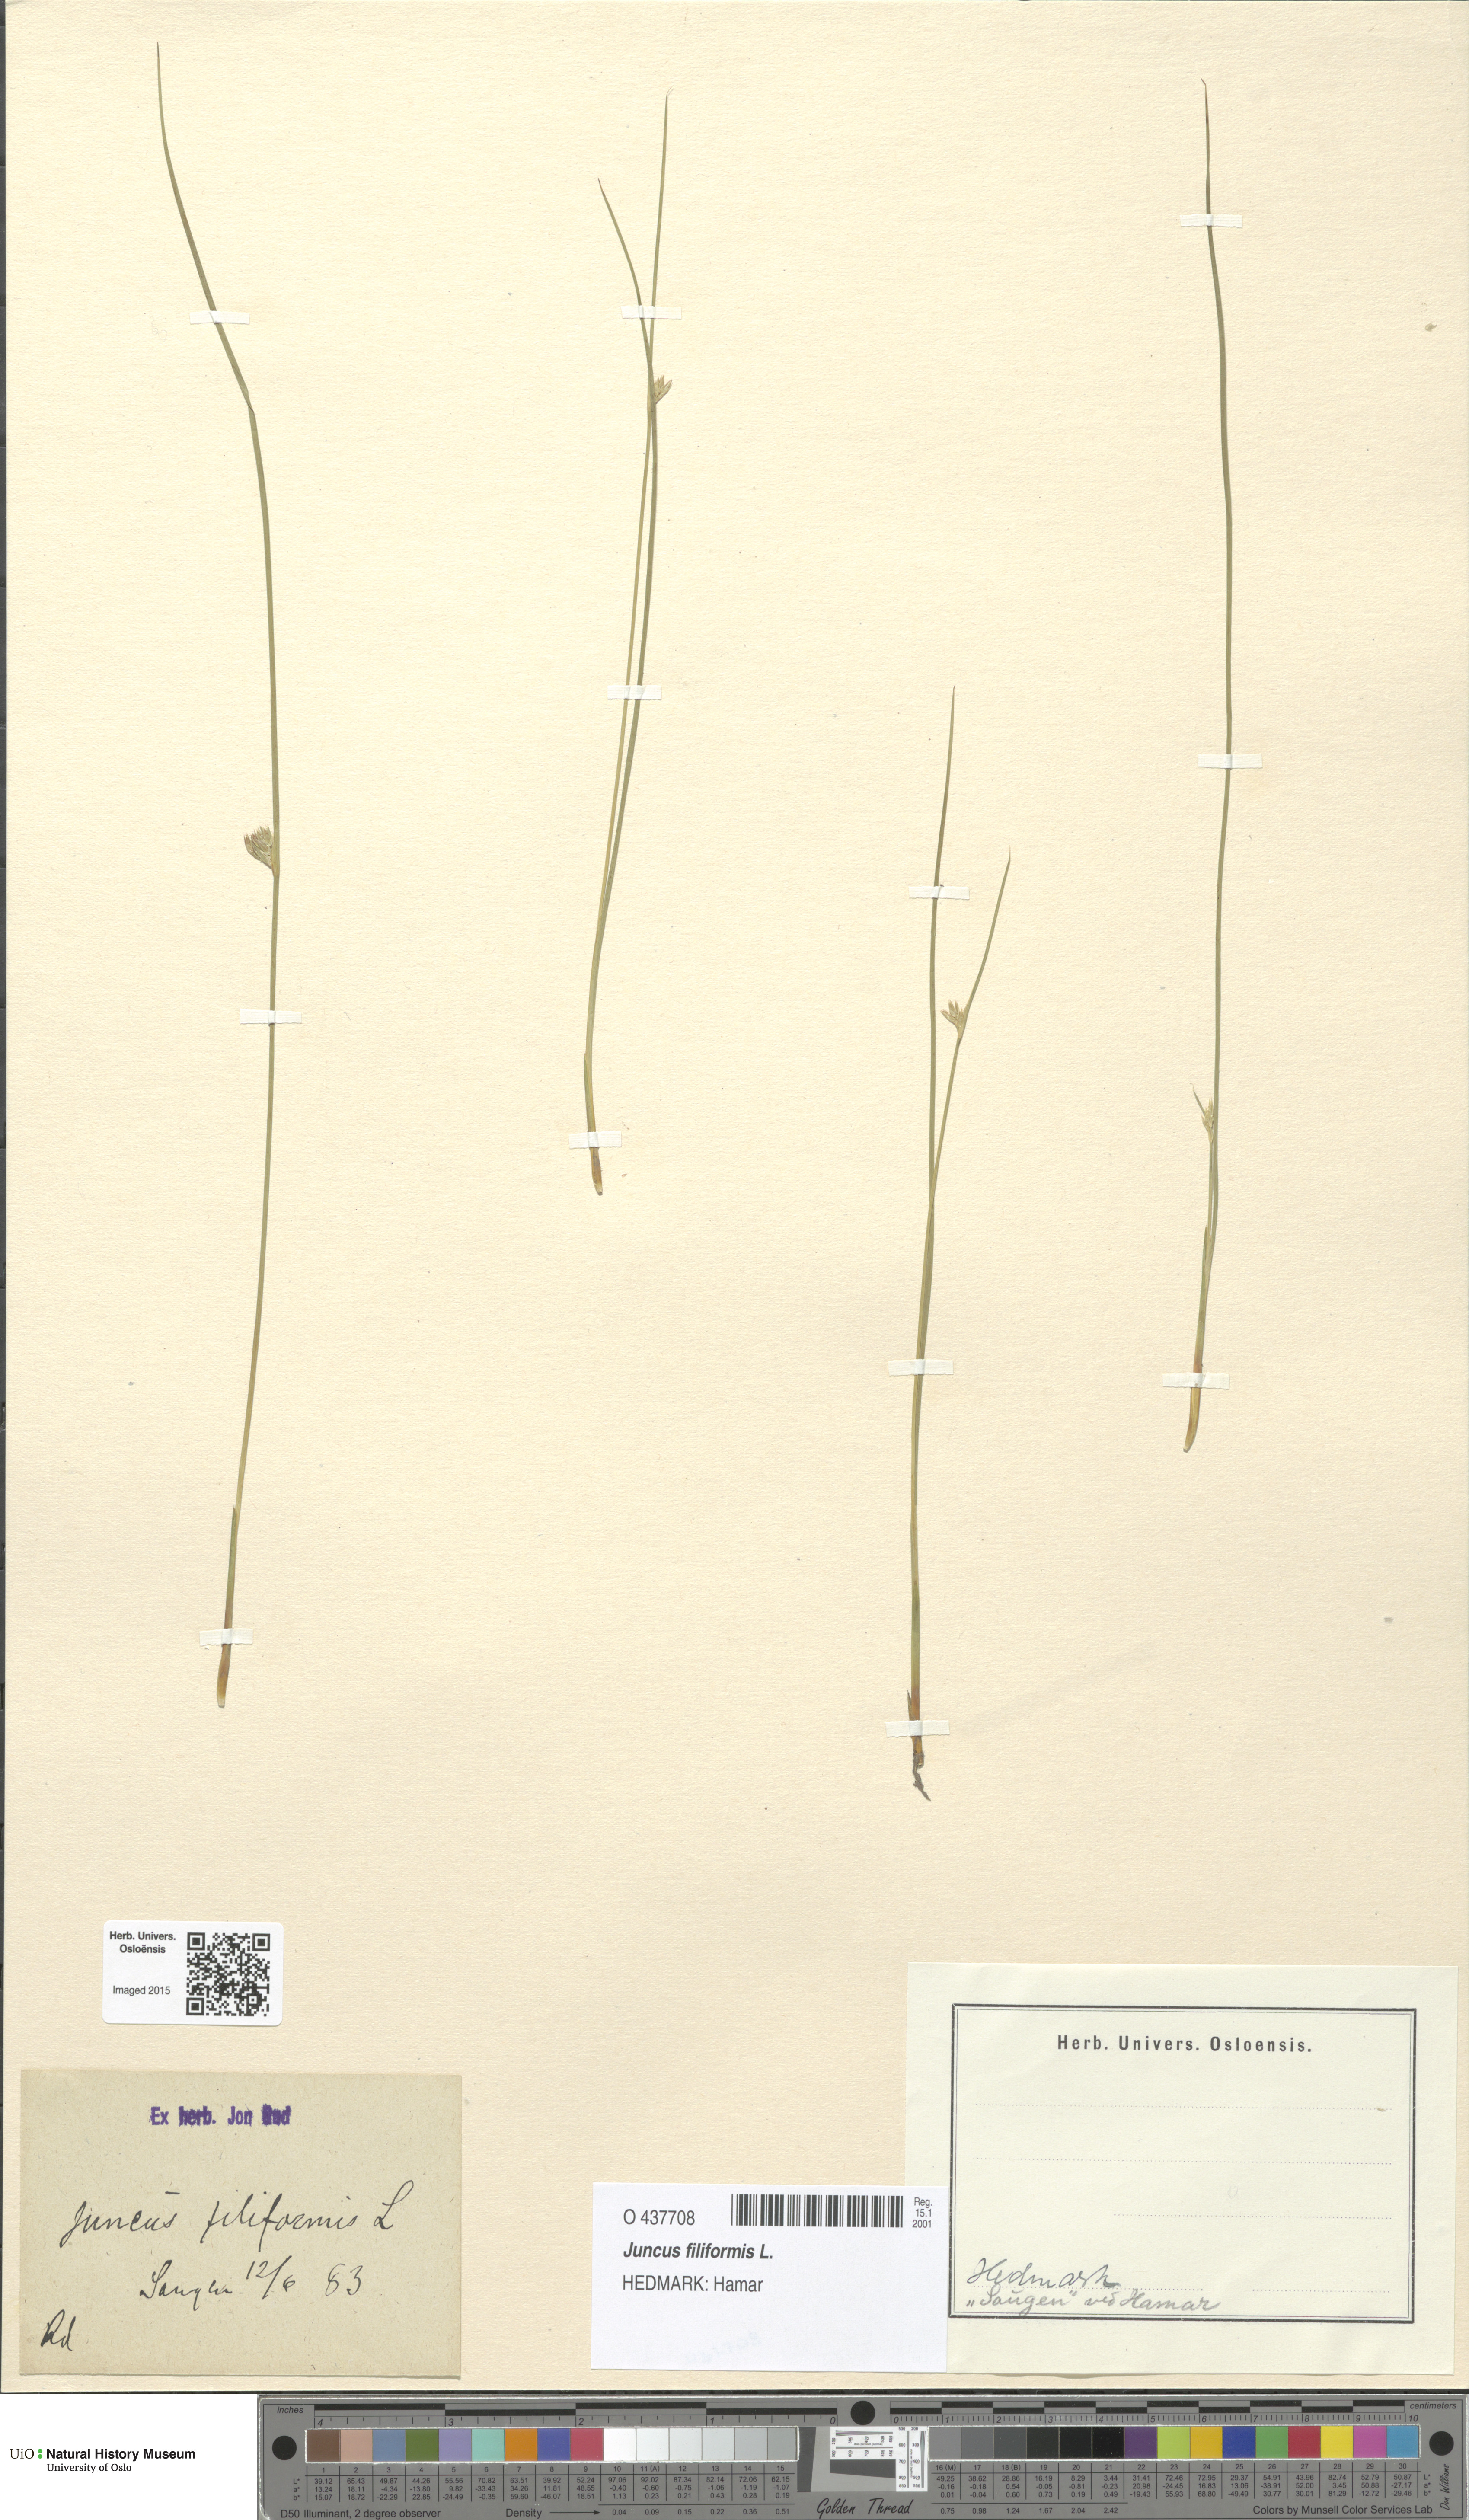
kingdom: Plantae
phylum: Tracheophyta
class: Liliopsida
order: Poales
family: Juncaceae
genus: Juncus
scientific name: Juncus filiformis
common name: Thread rush
